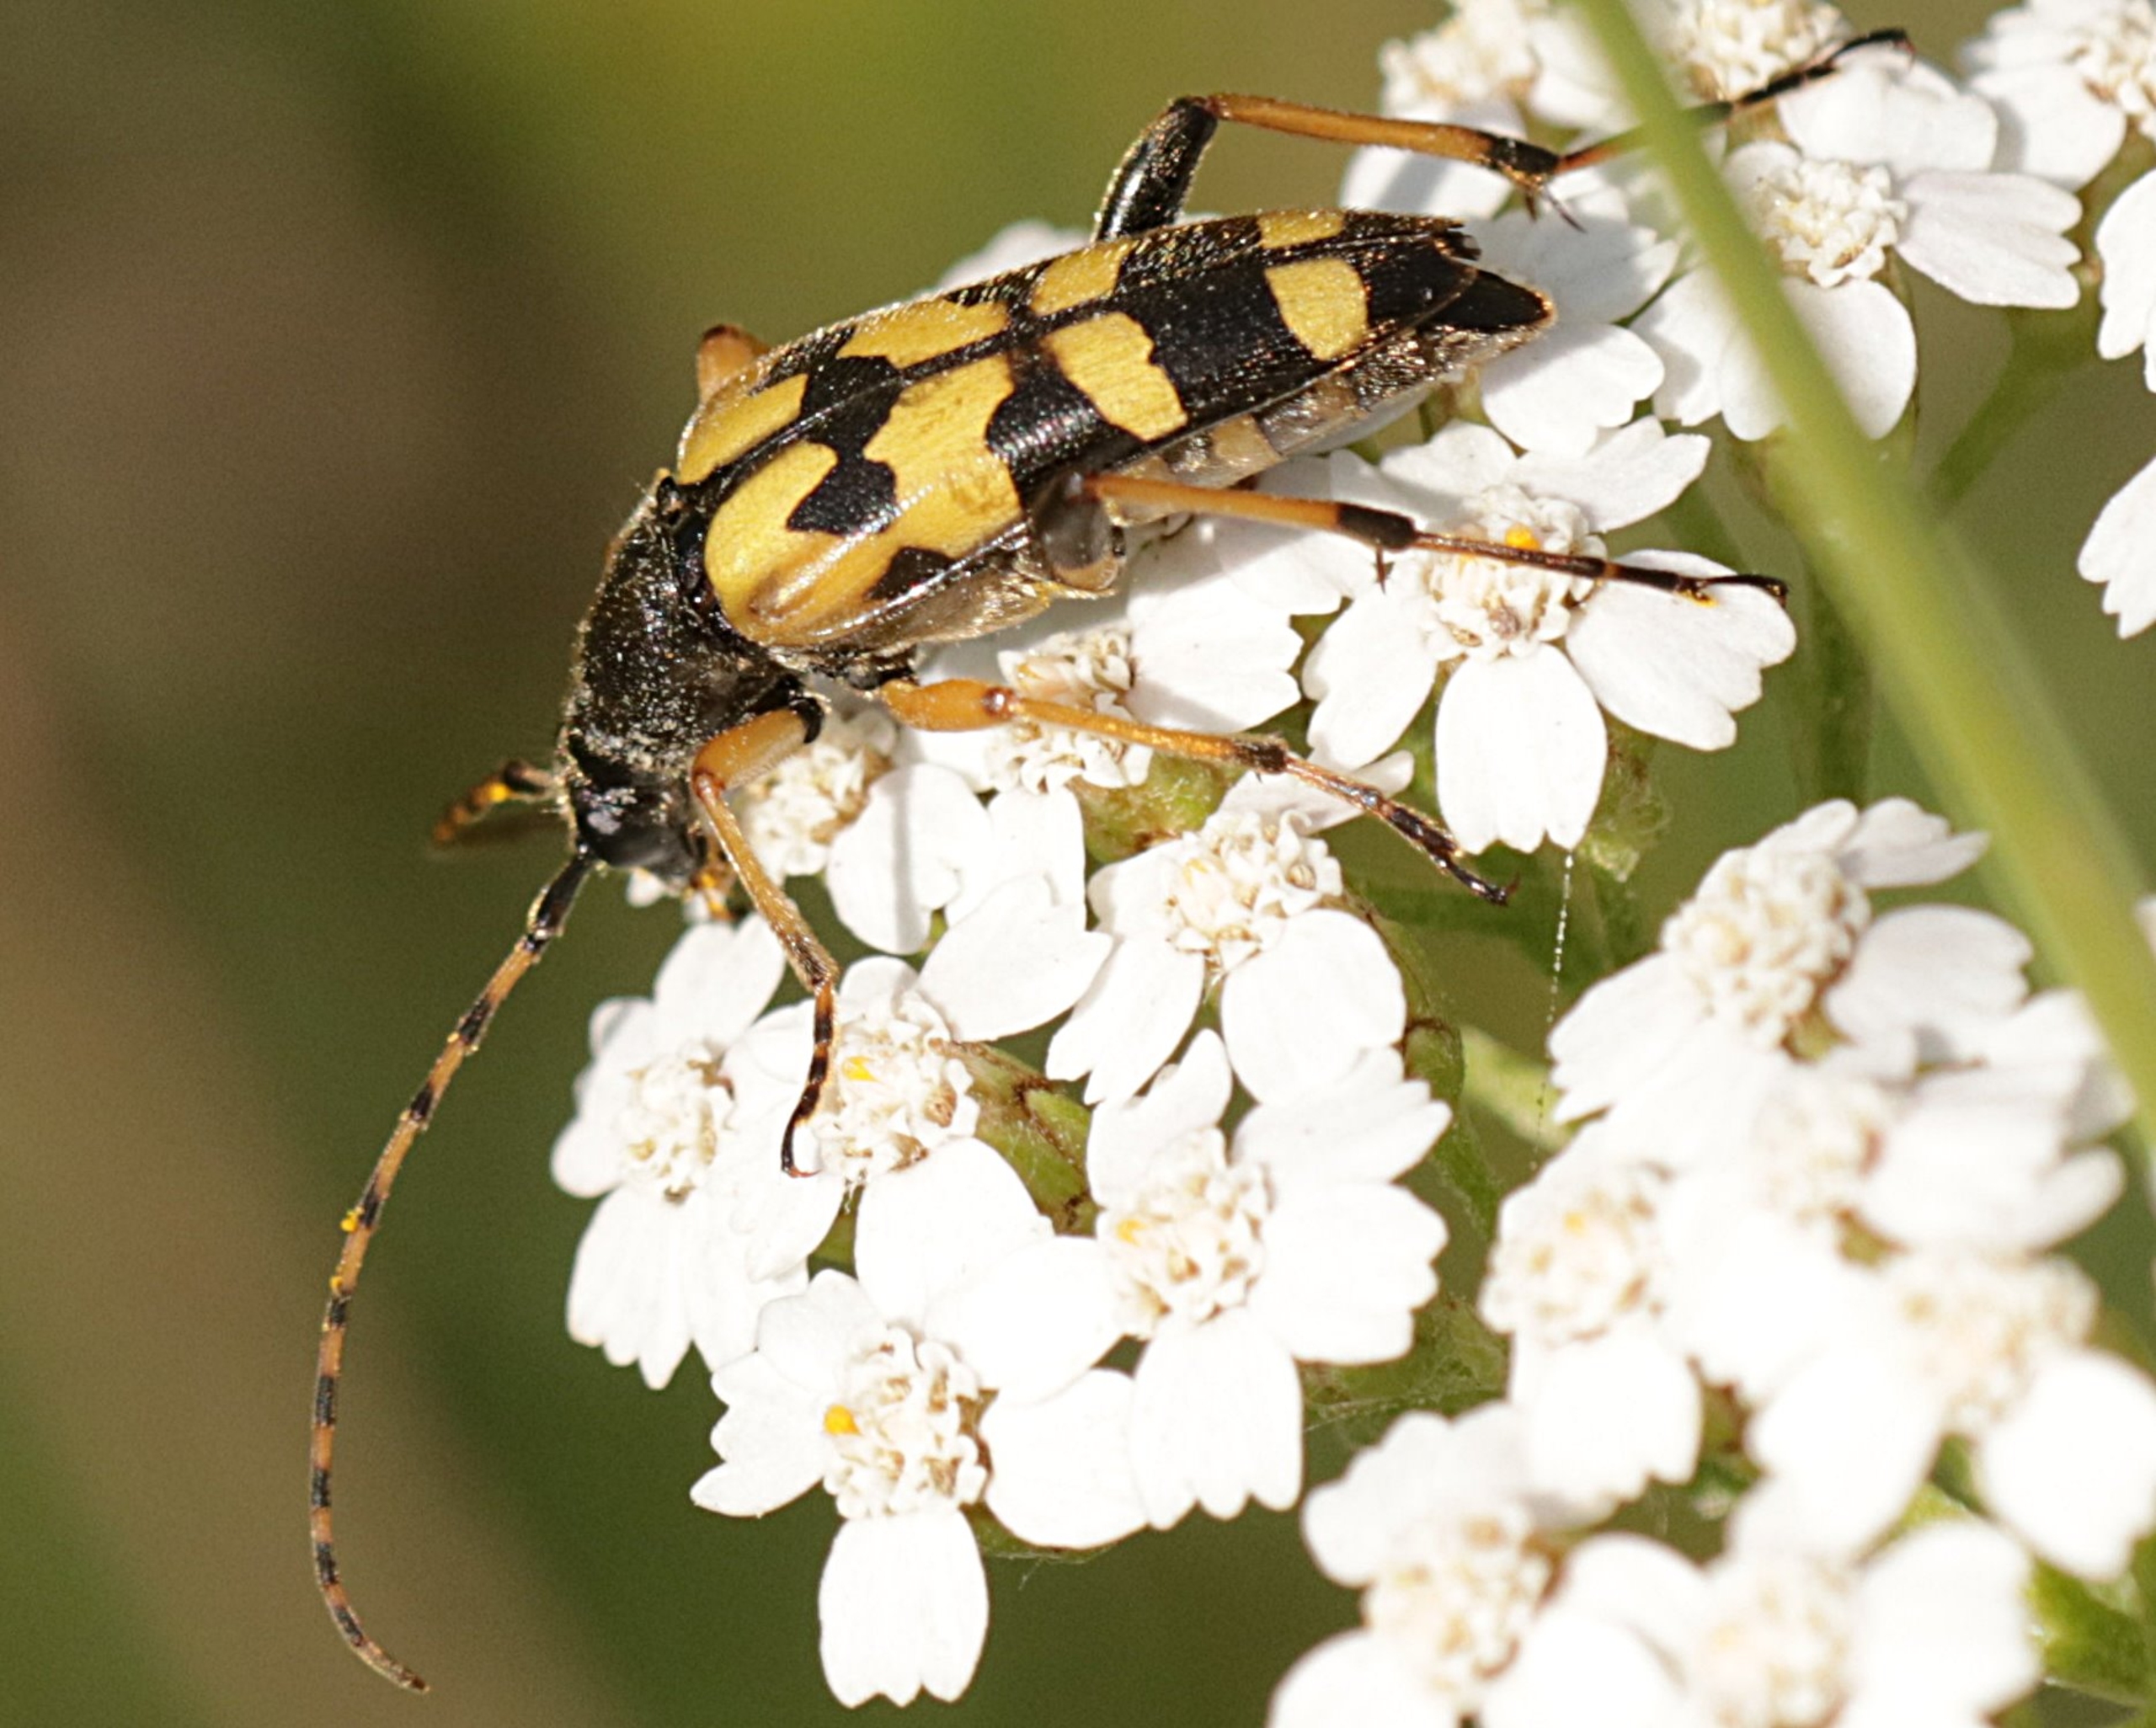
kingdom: Animalia
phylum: Arthropoda
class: Insecta
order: Coleoptera
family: Cerambycidae
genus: Rutpela
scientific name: Rutpela maculata
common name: Sydlig blomsterbuk
